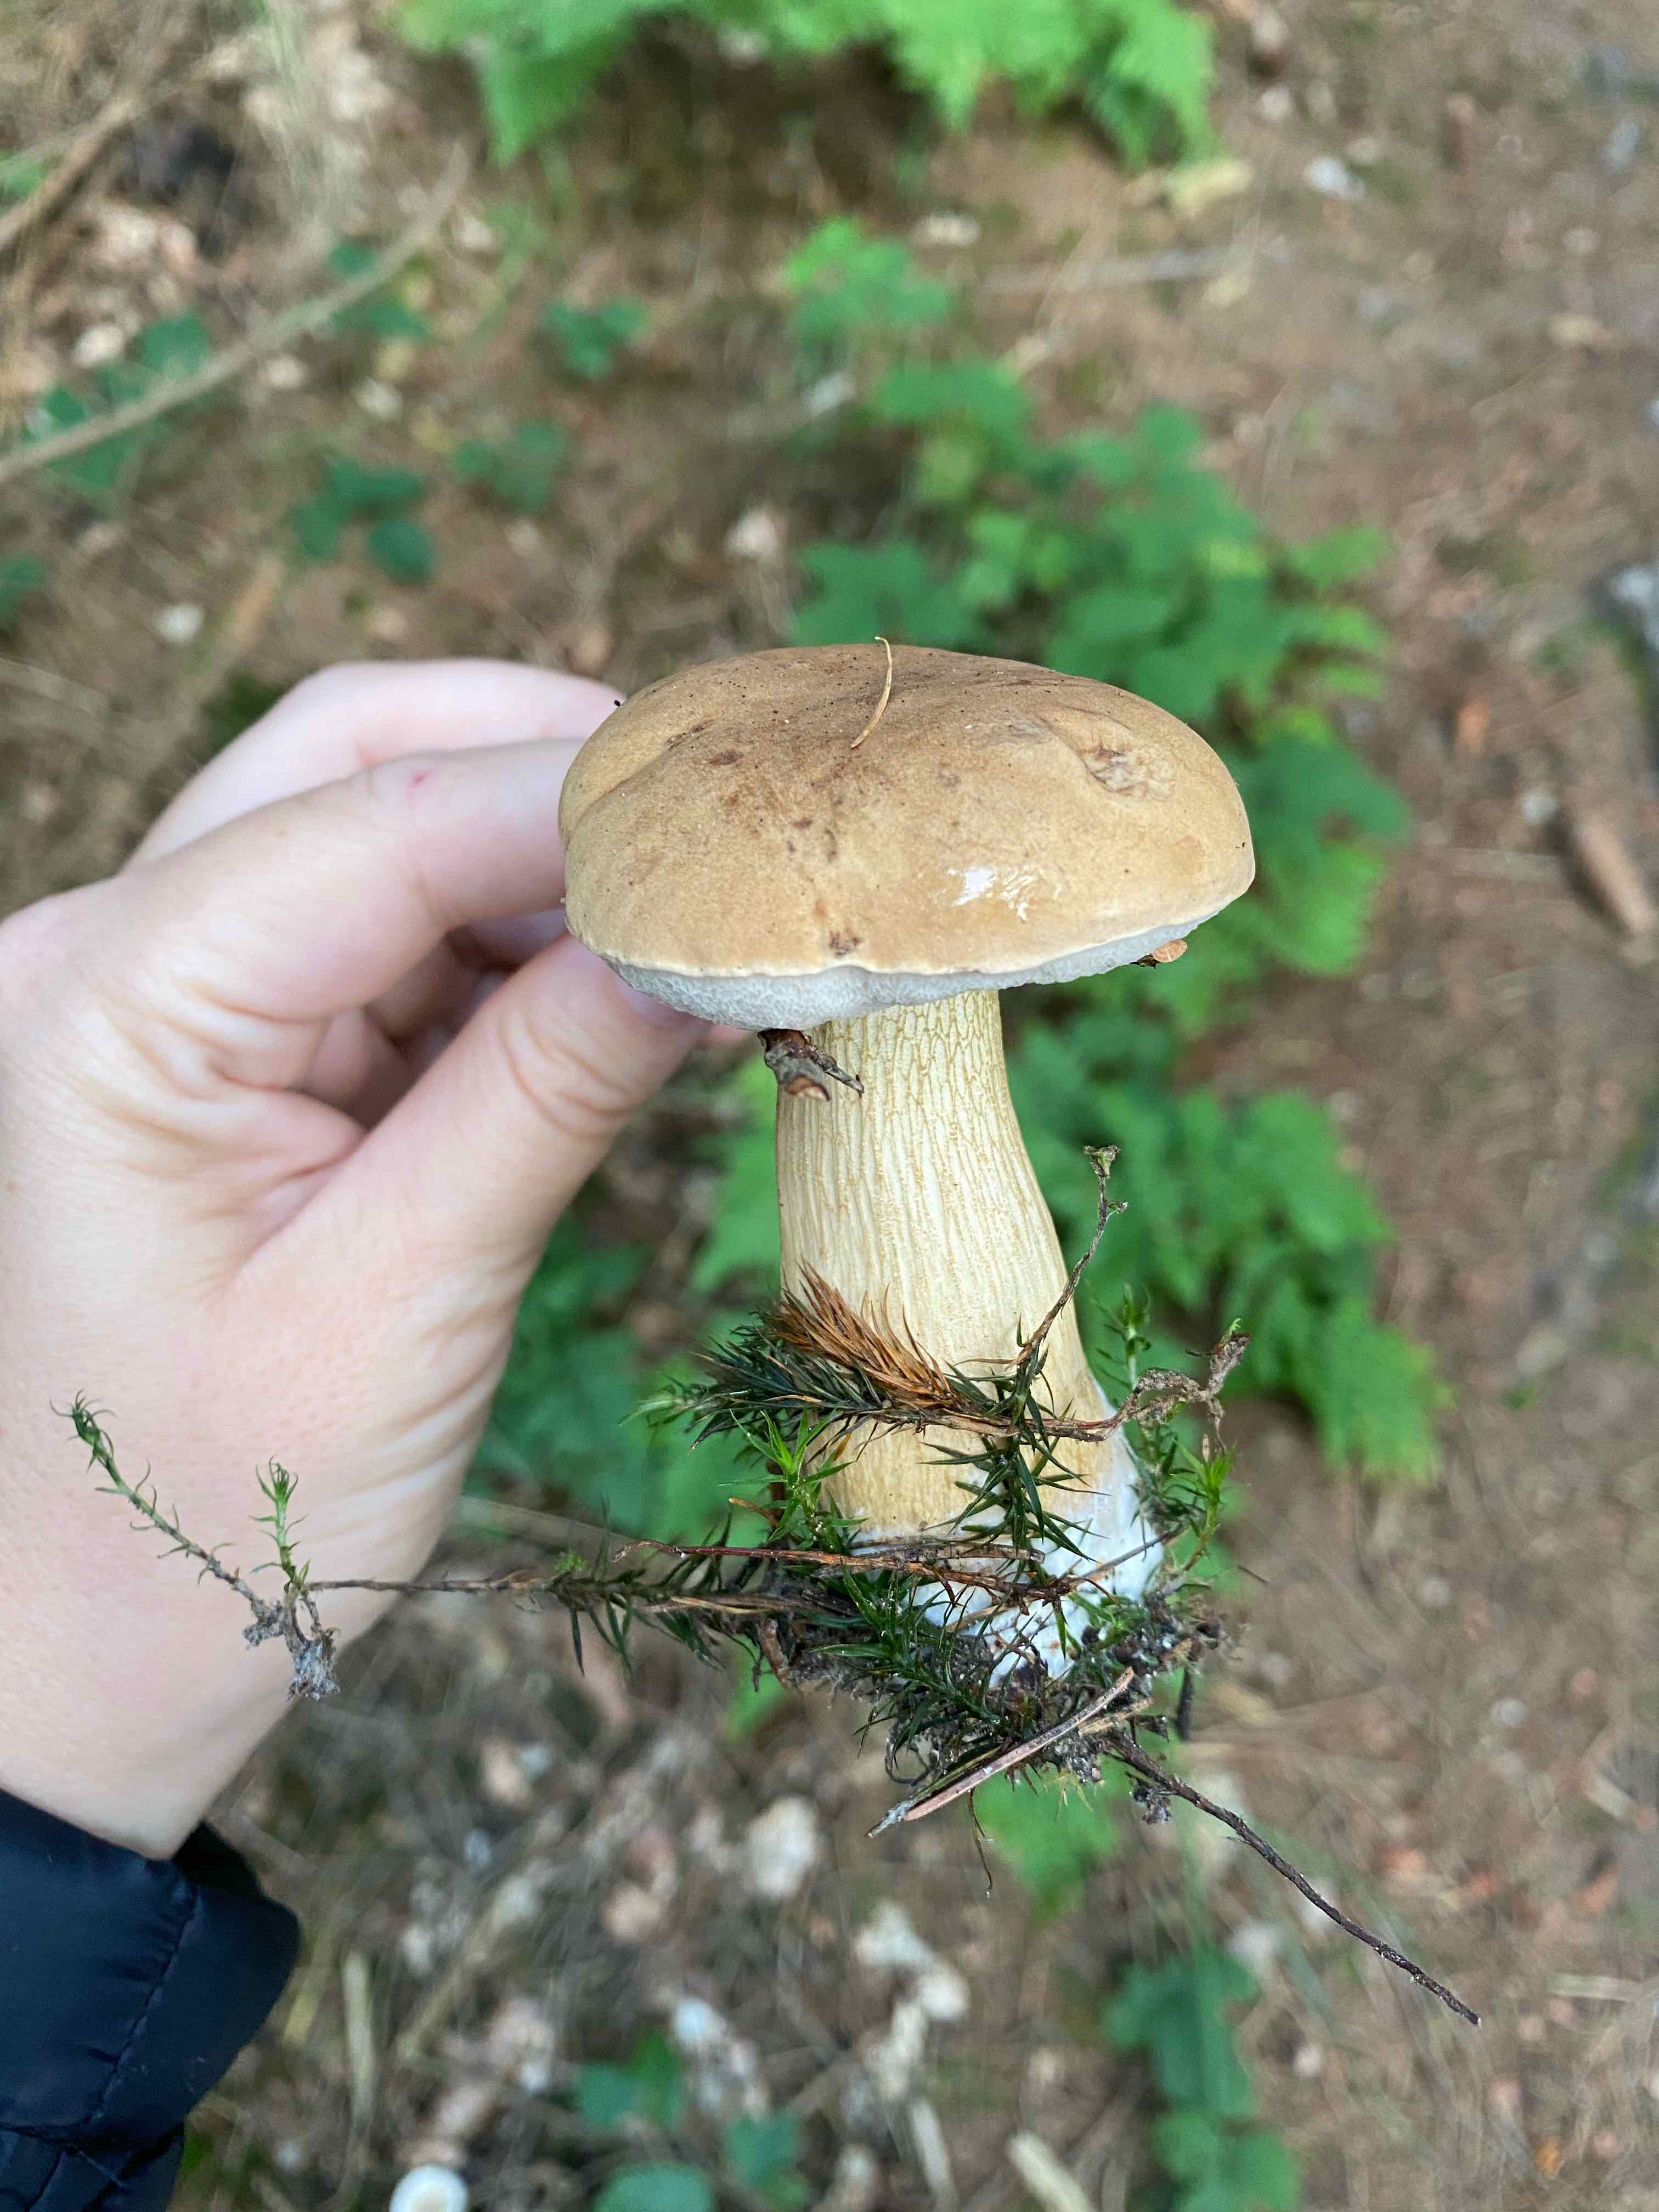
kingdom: Fungi
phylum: Basidiomycota
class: Agaricomycetes
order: Boletales
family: Boletaceae
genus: Tylopilus
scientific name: Tylopilus felleus
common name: galderørhat
